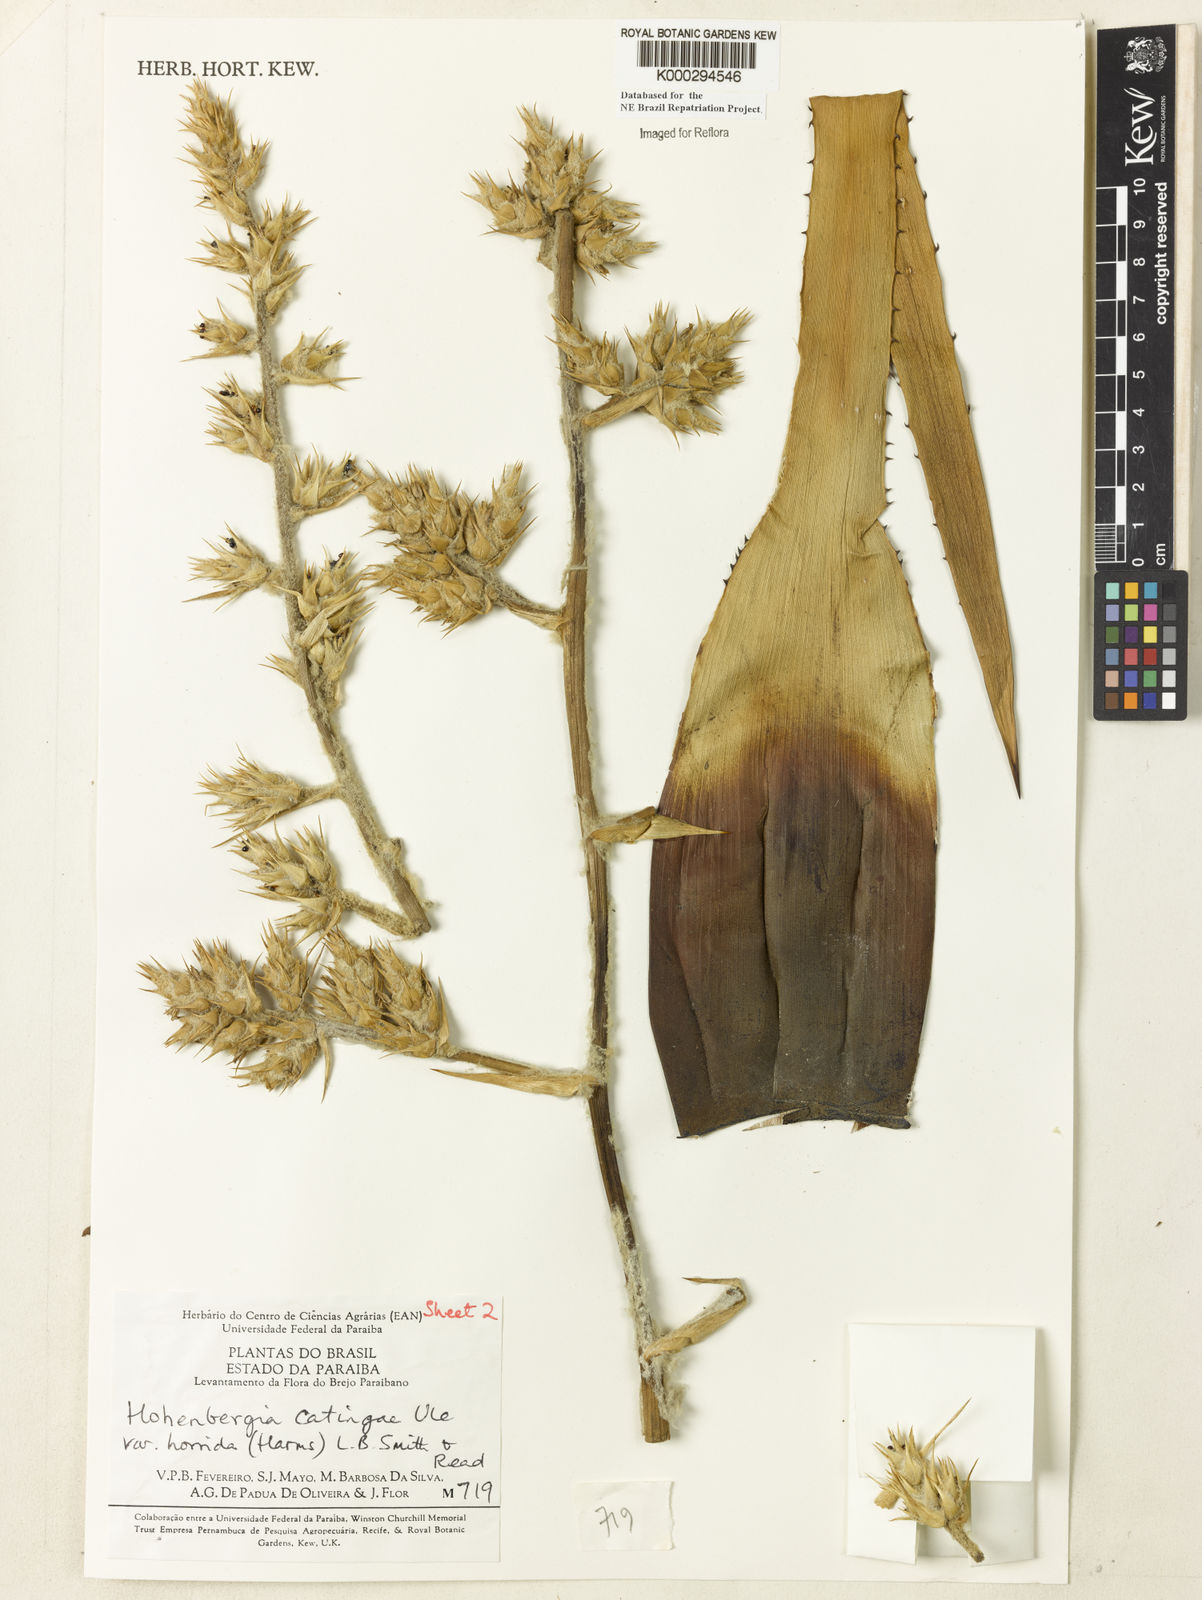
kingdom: Plantae
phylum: Tracheophyta
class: Liliopsida
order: Poales
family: Bromeliaceae
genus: Hohenbergia
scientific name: Hohenbergia horrida
